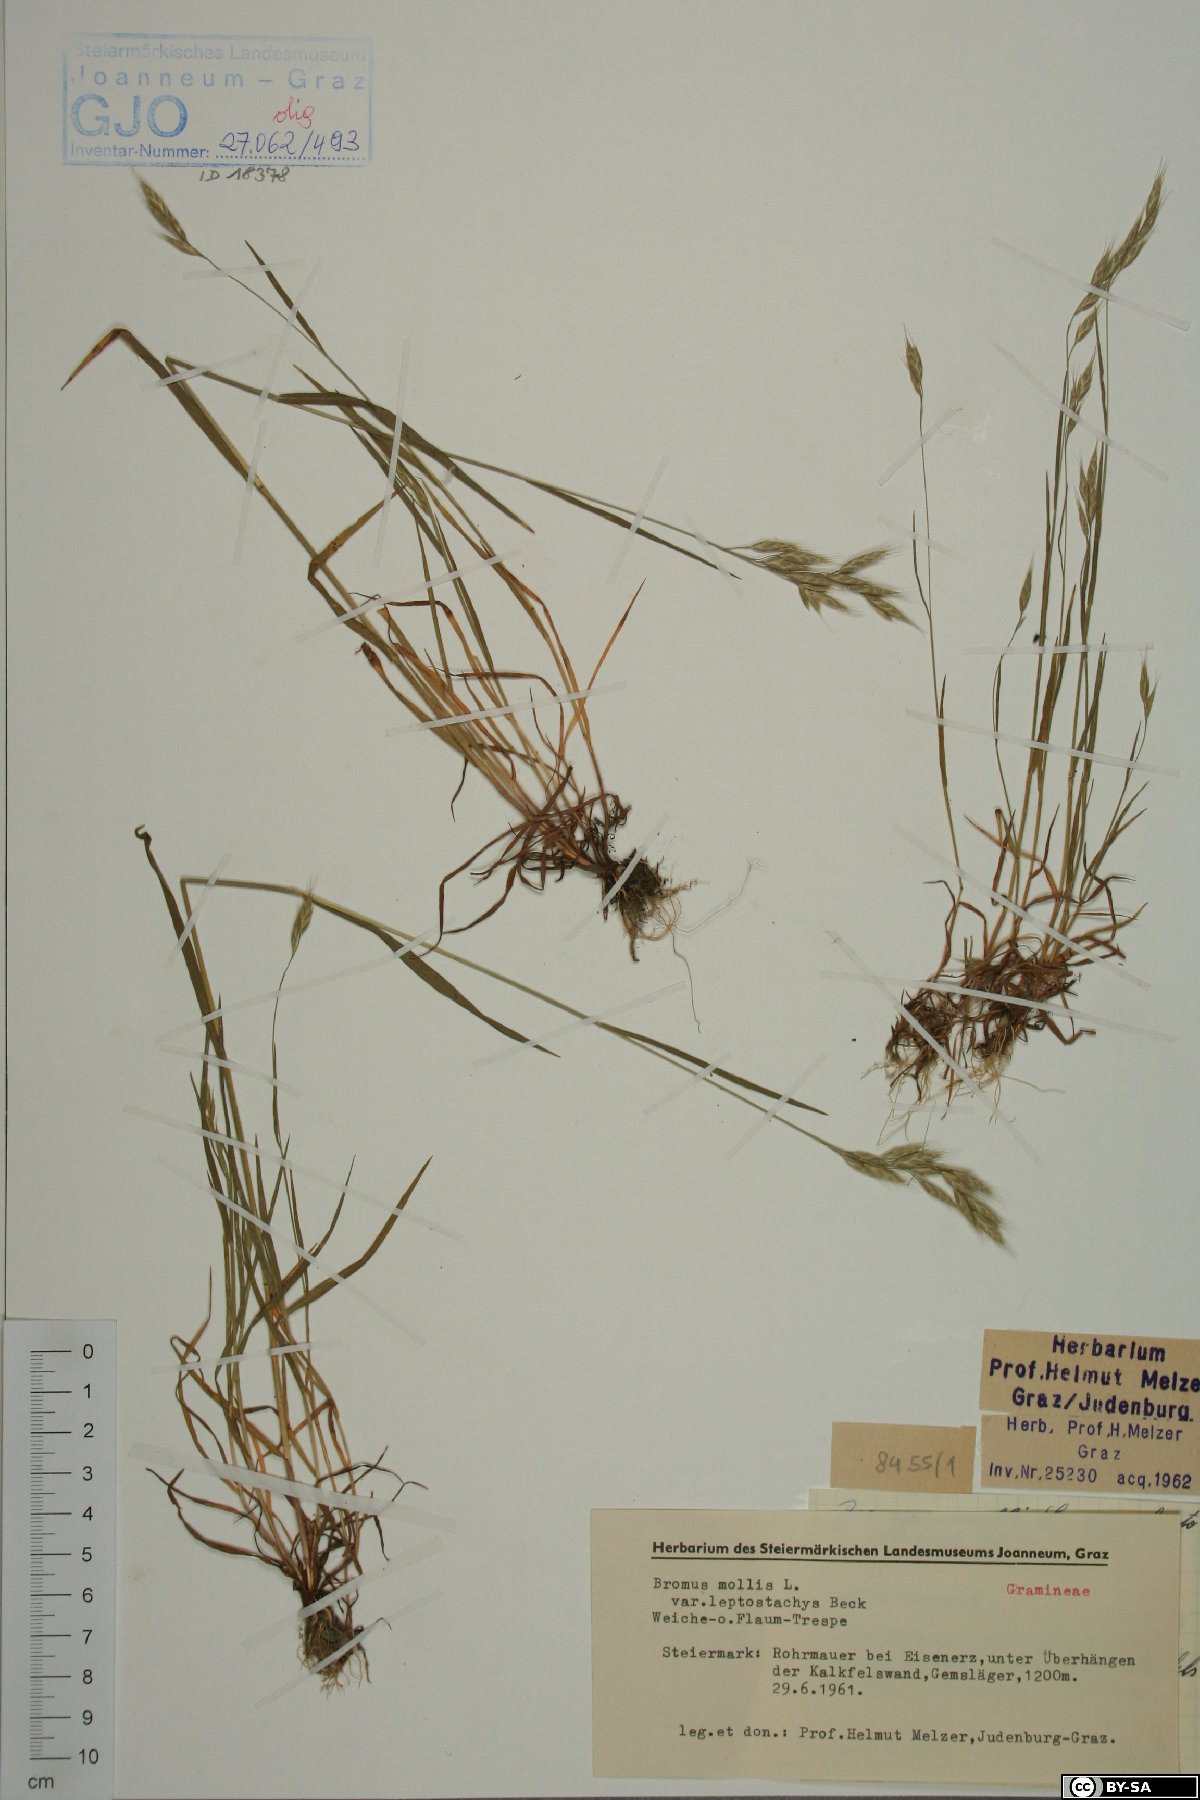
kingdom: Plantae
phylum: Tracheophyta
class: Liliopsida
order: Poales
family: Poaceae
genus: Bromus
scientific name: Bromus hordeaceus
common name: Soft brome
